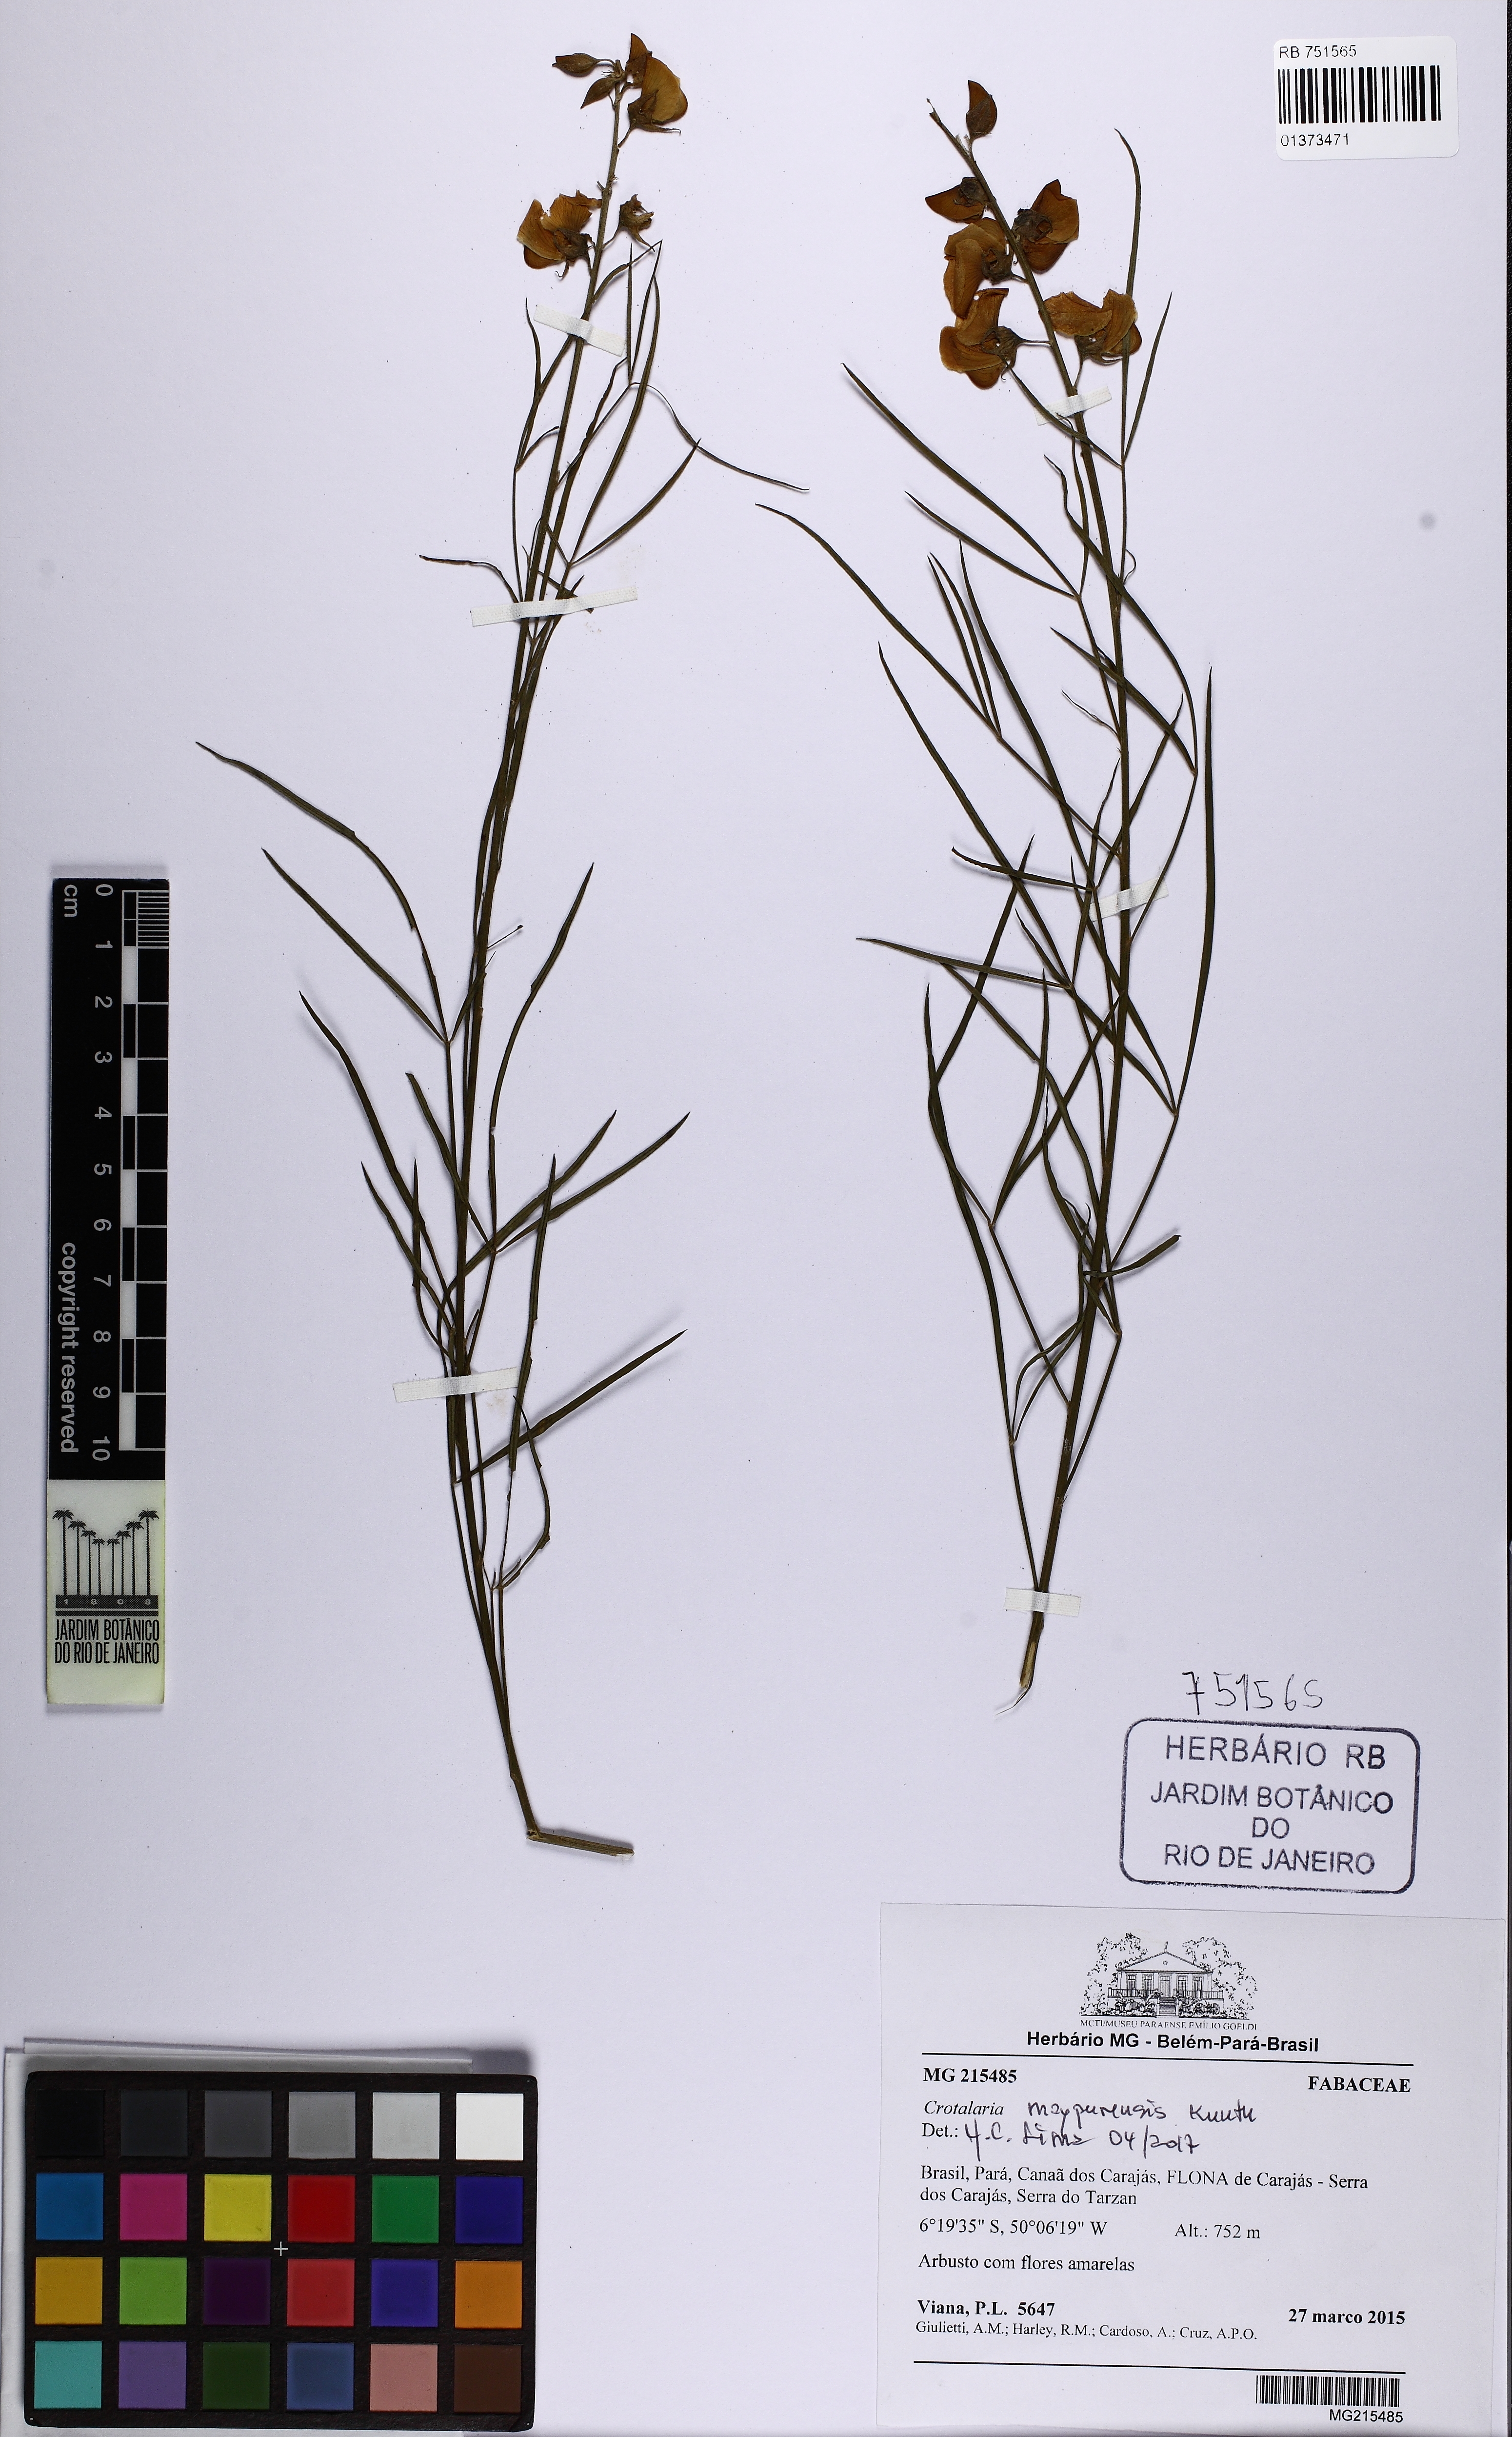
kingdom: Plantae
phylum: Tracheophyta
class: Magnoliopsida
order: Fabales
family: Fabaceae
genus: Crotalaria
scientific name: Crotalaria maypurensis
